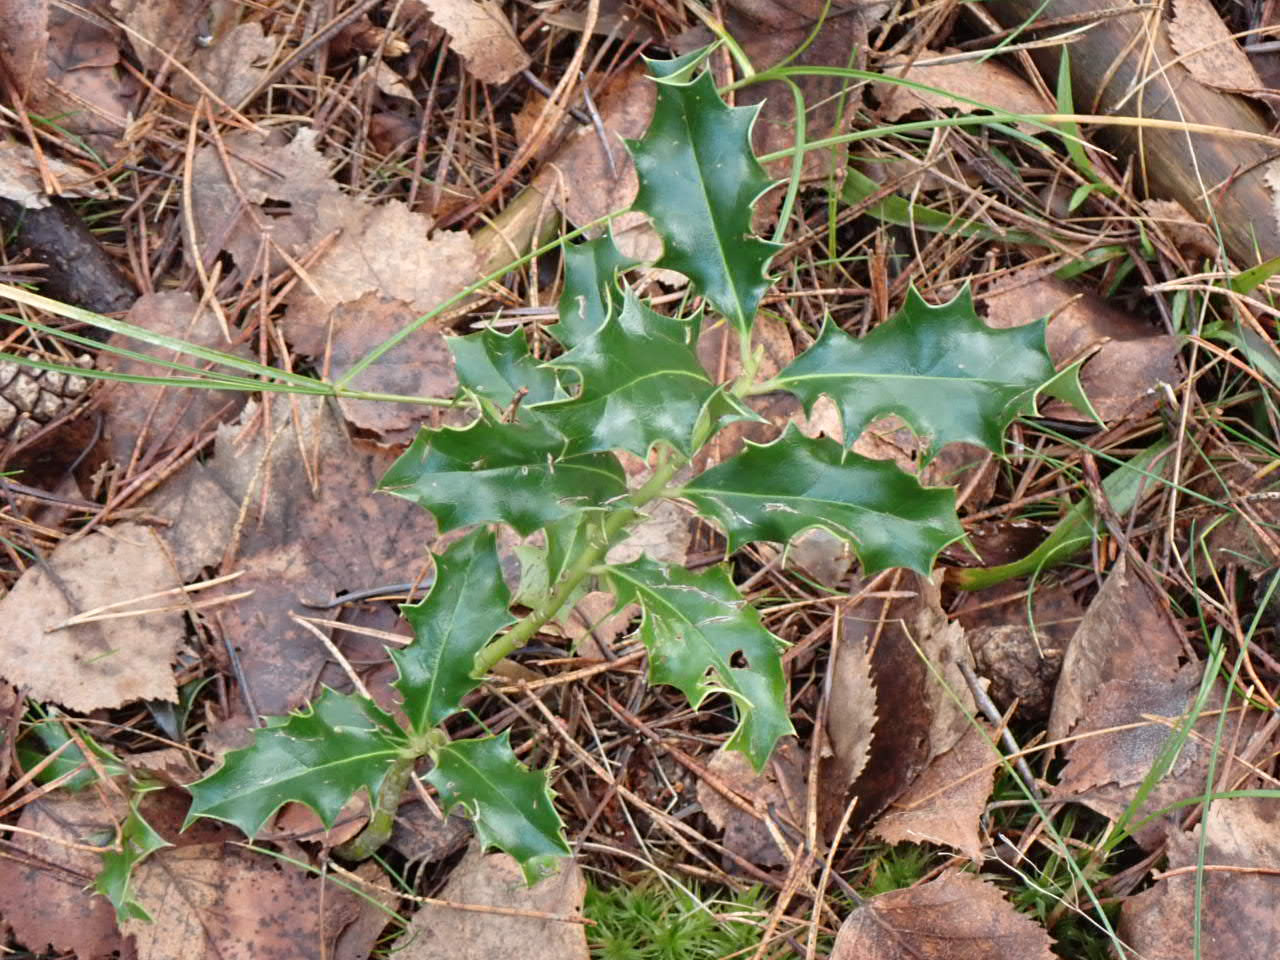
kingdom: Plantae
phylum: Tracheophyta
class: Magnoliopsida
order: Aquifoliales
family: Aquifoliaceae
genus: Ilex
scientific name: Ilex aquifolium
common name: Kristtorn
